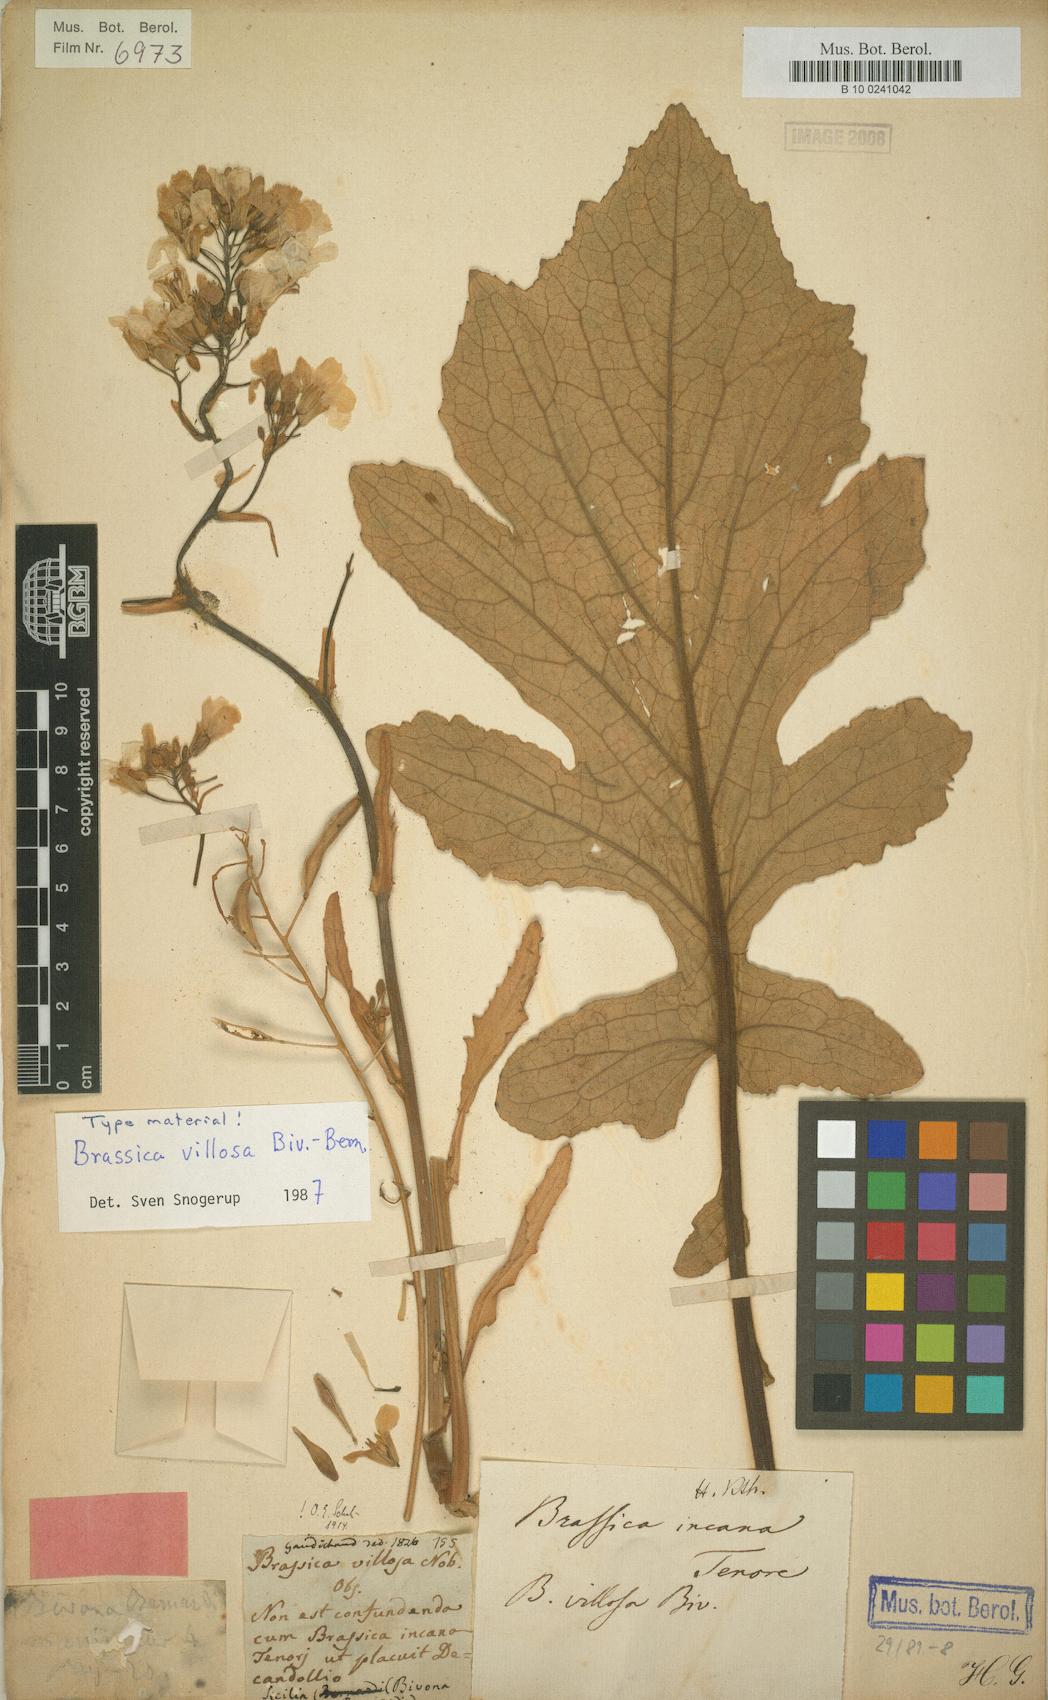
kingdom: Plantae
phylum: Tracheophyta
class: Magnoliopsida
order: Brassicales
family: Brassicaceae
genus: Brassica
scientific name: Brassica villosa
